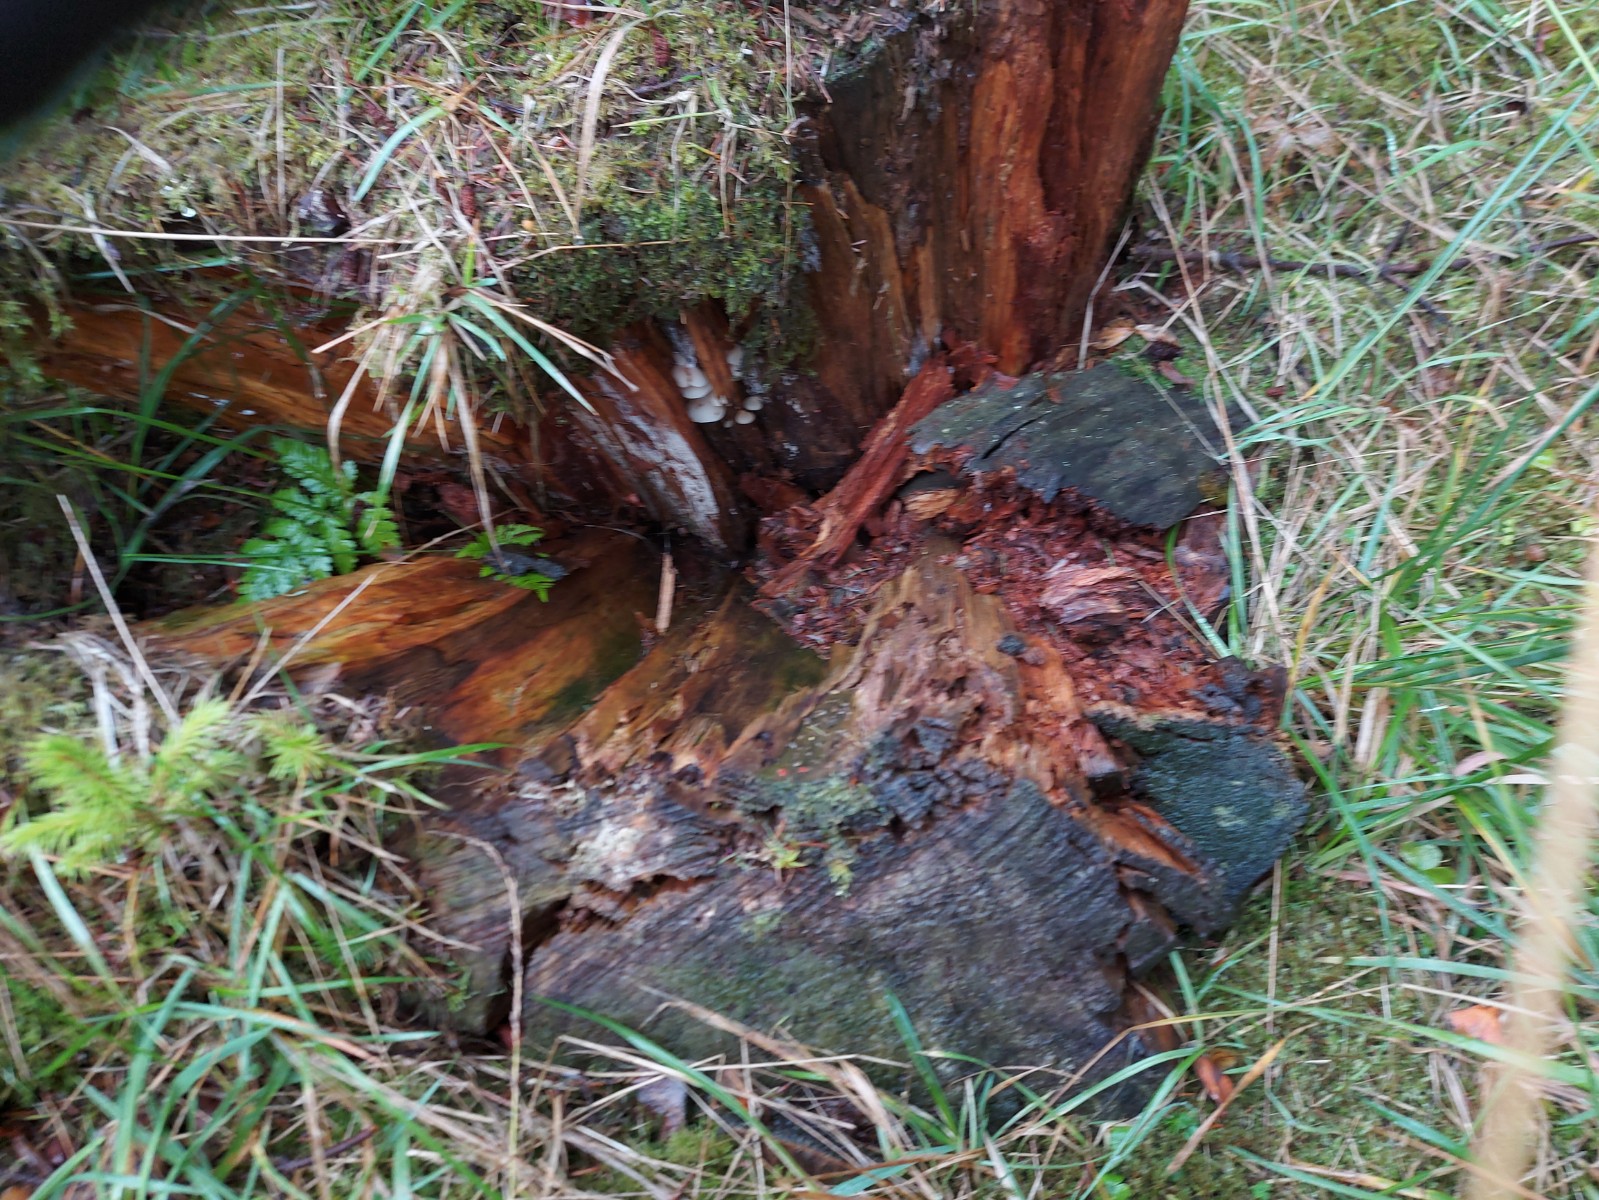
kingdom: Fungi
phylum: Basidiomycota
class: Agaricomycetes
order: Agaricales
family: Crepidotaceae
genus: Crepidotus
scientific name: Crepidotus
